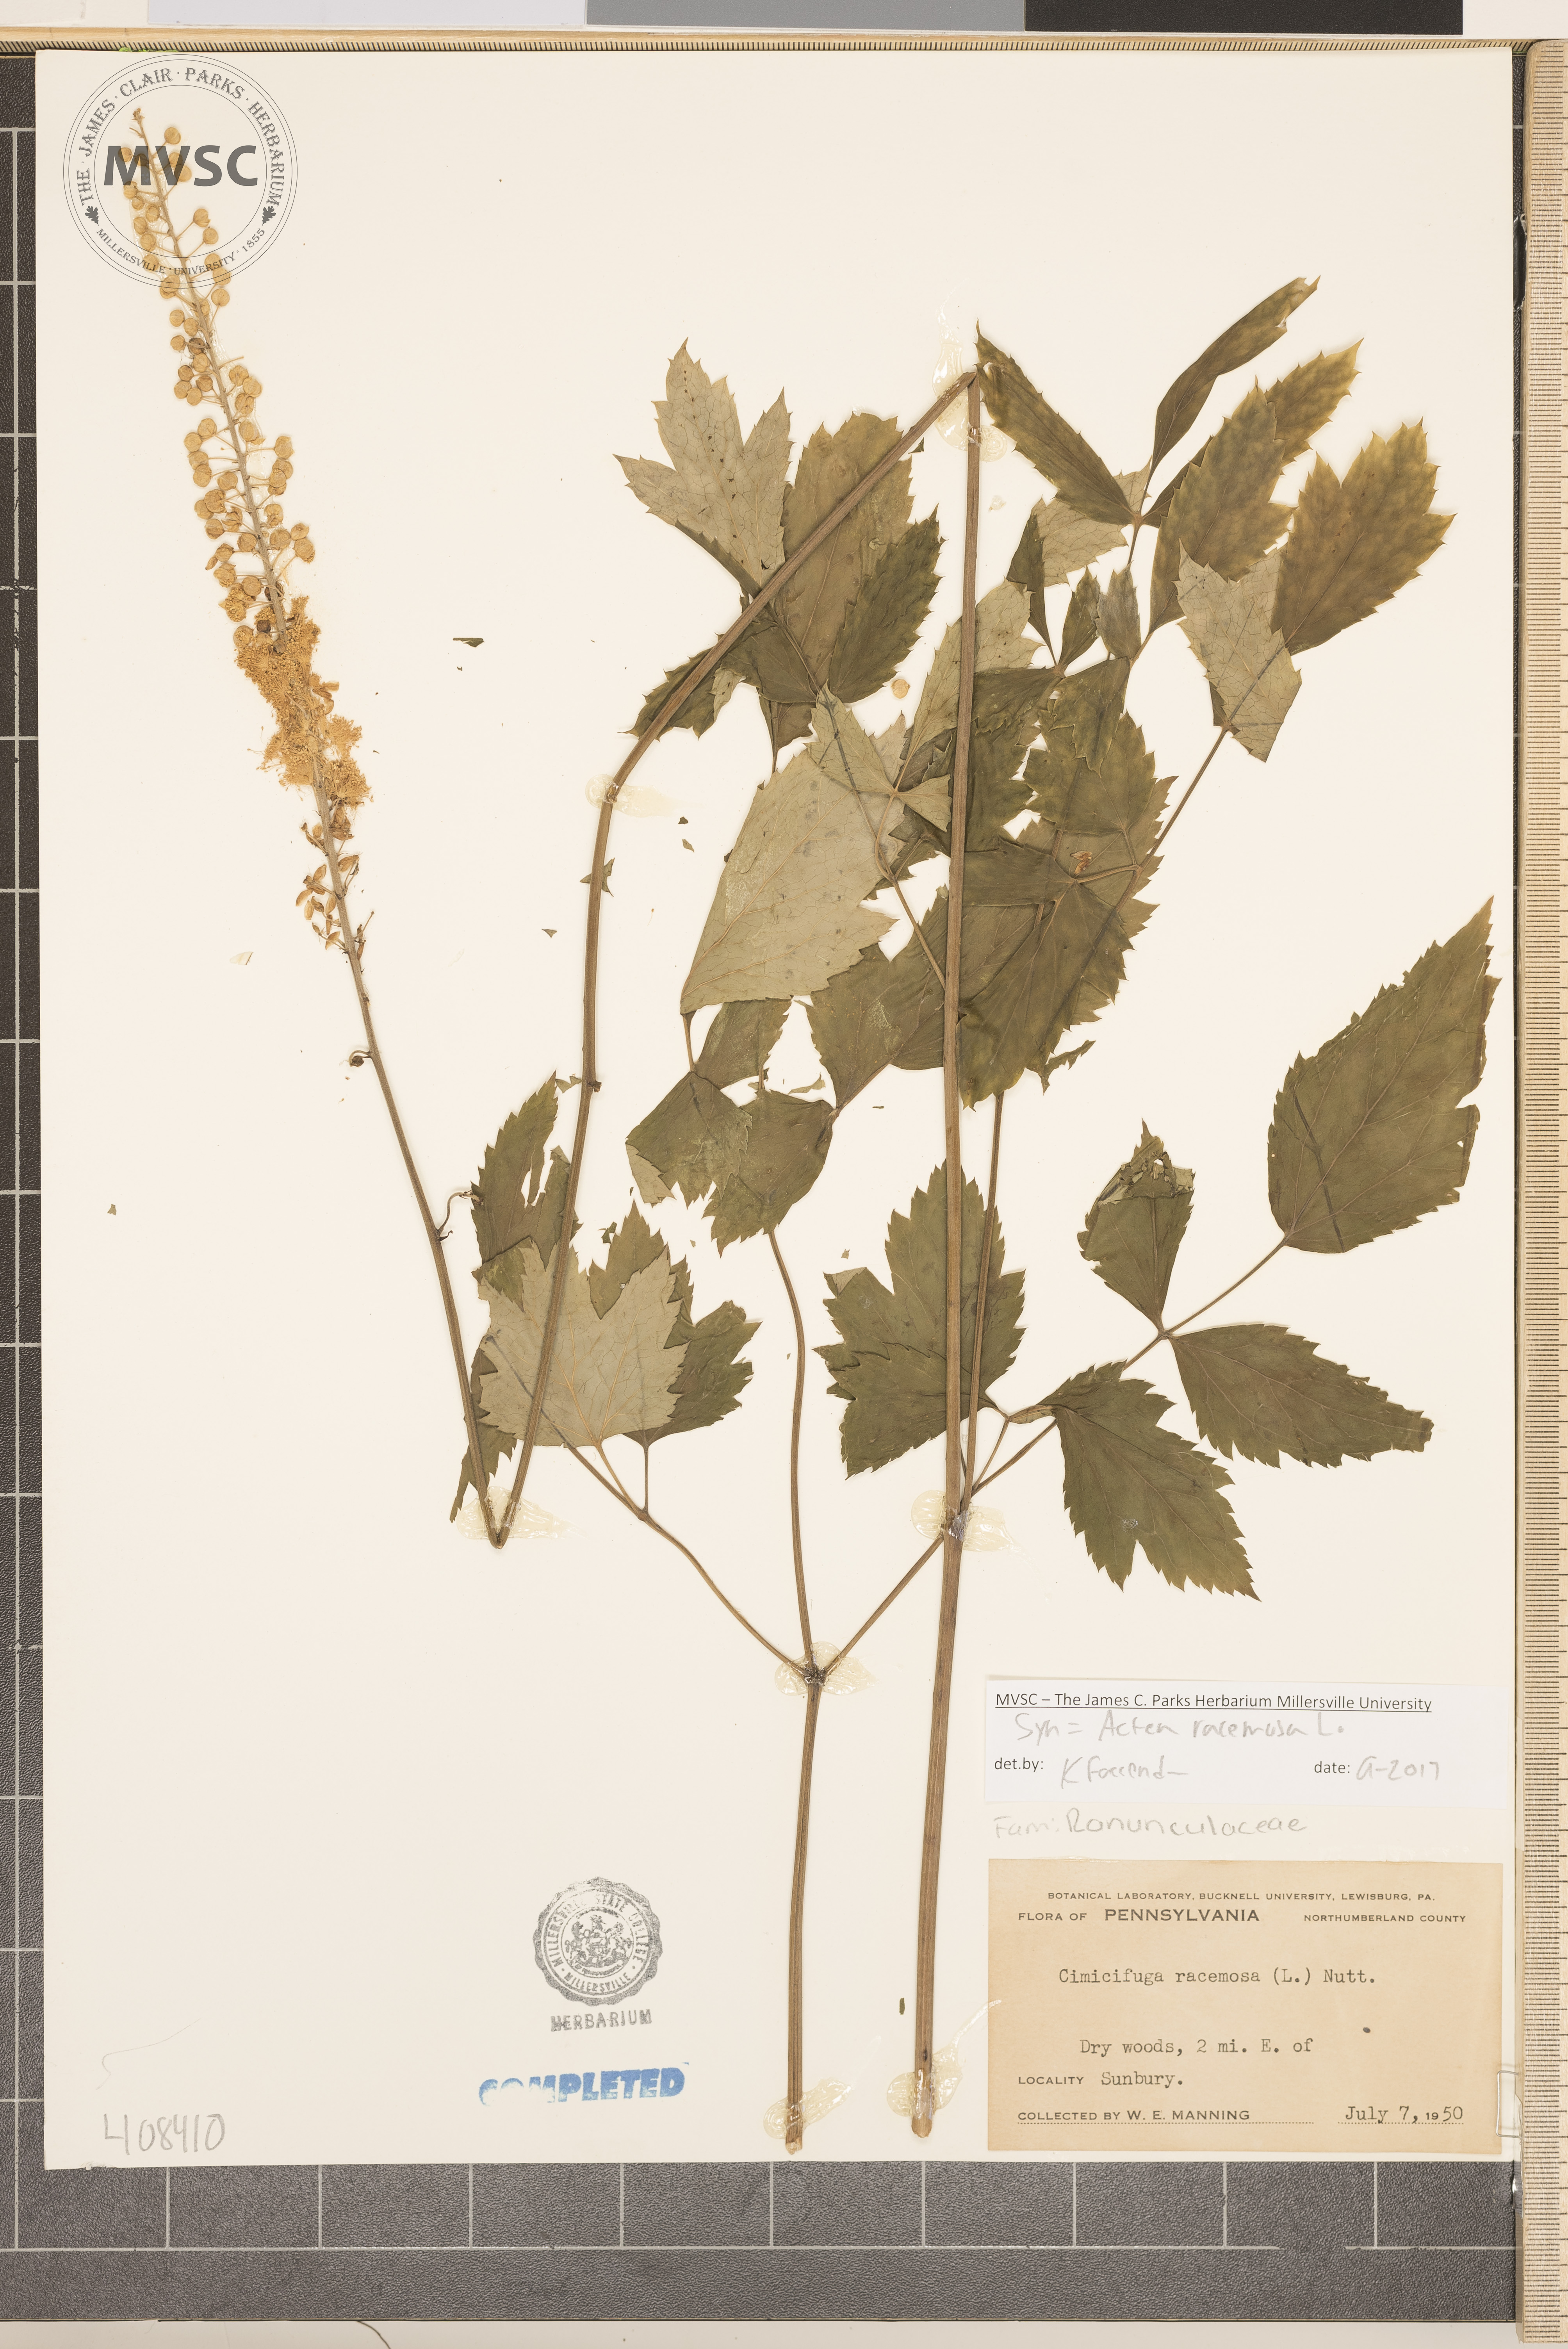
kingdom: Plantae
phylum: Tracheophyta
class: Magnoliopsida
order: Ranunculales
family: Ranunculaceae
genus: Actaea
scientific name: Actaea racemosa
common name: Black cohosh
